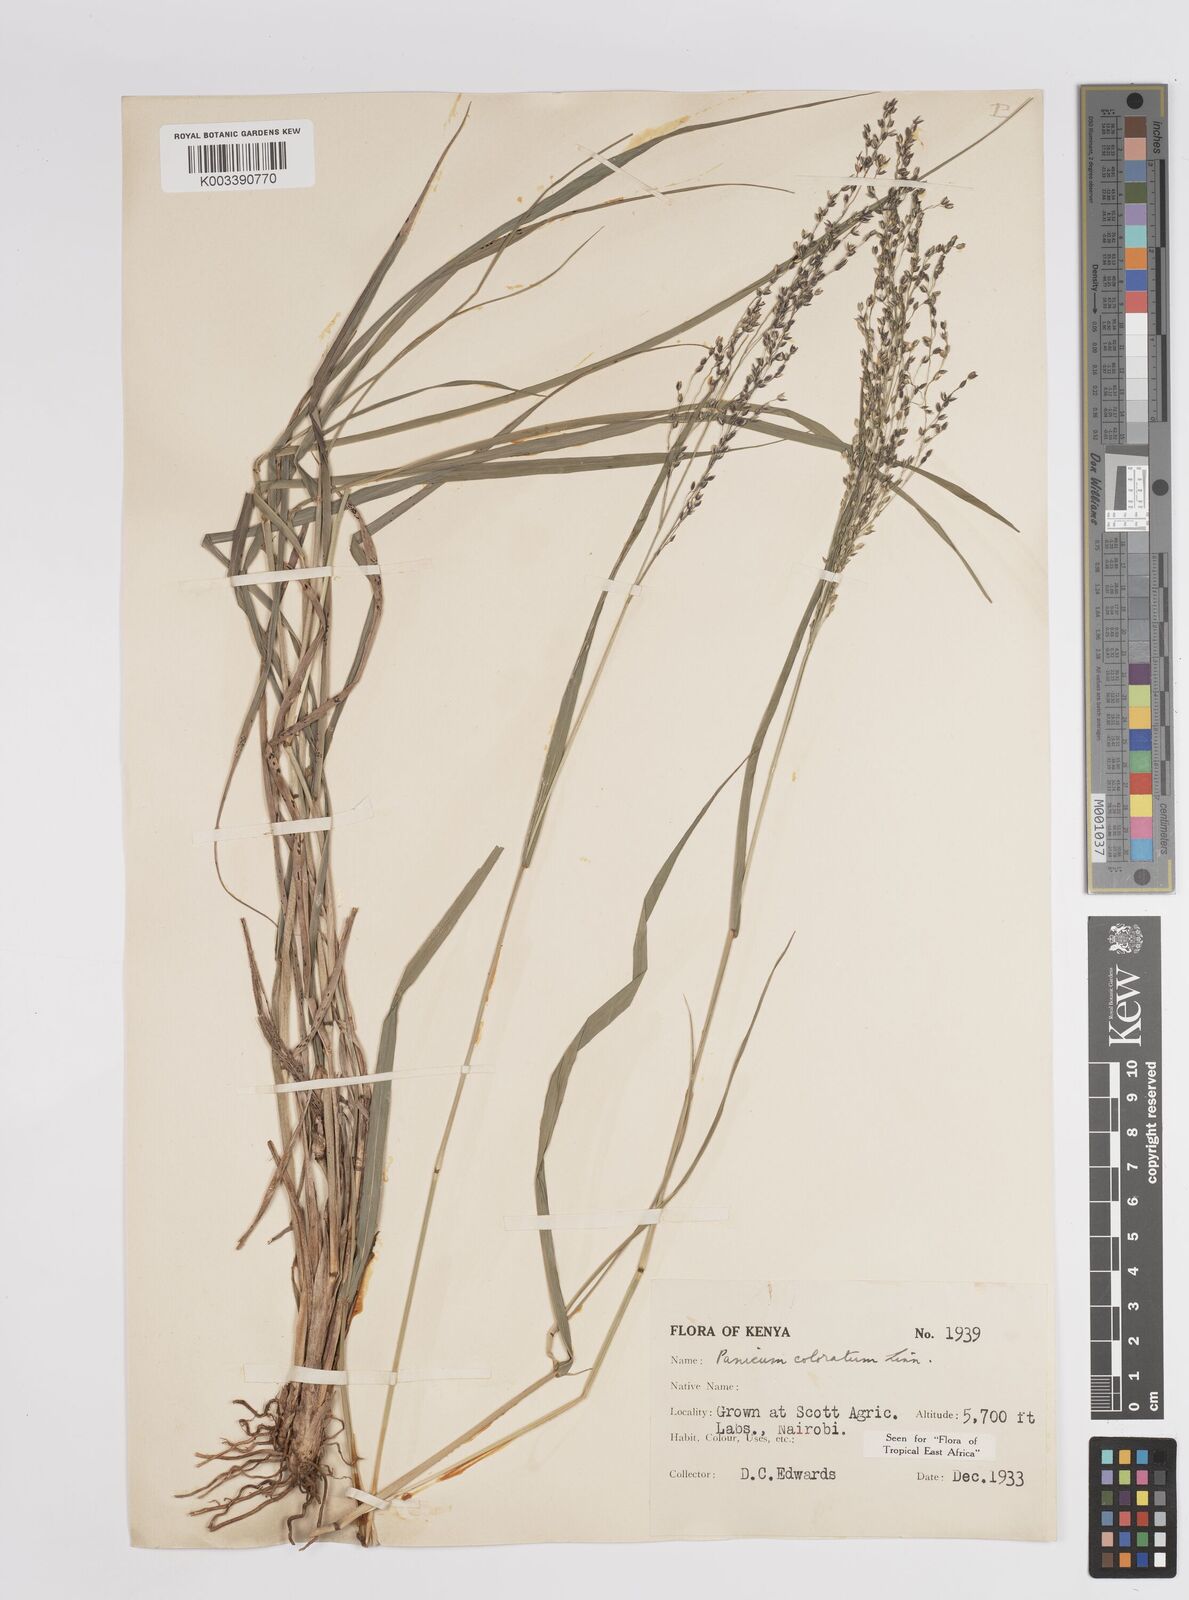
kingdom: Plantae
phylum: Tracheophyta
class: Liliopsida
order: Poales
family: Poaceae
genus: Panicum
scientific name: Panicum coloratum
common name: Kleingrass
